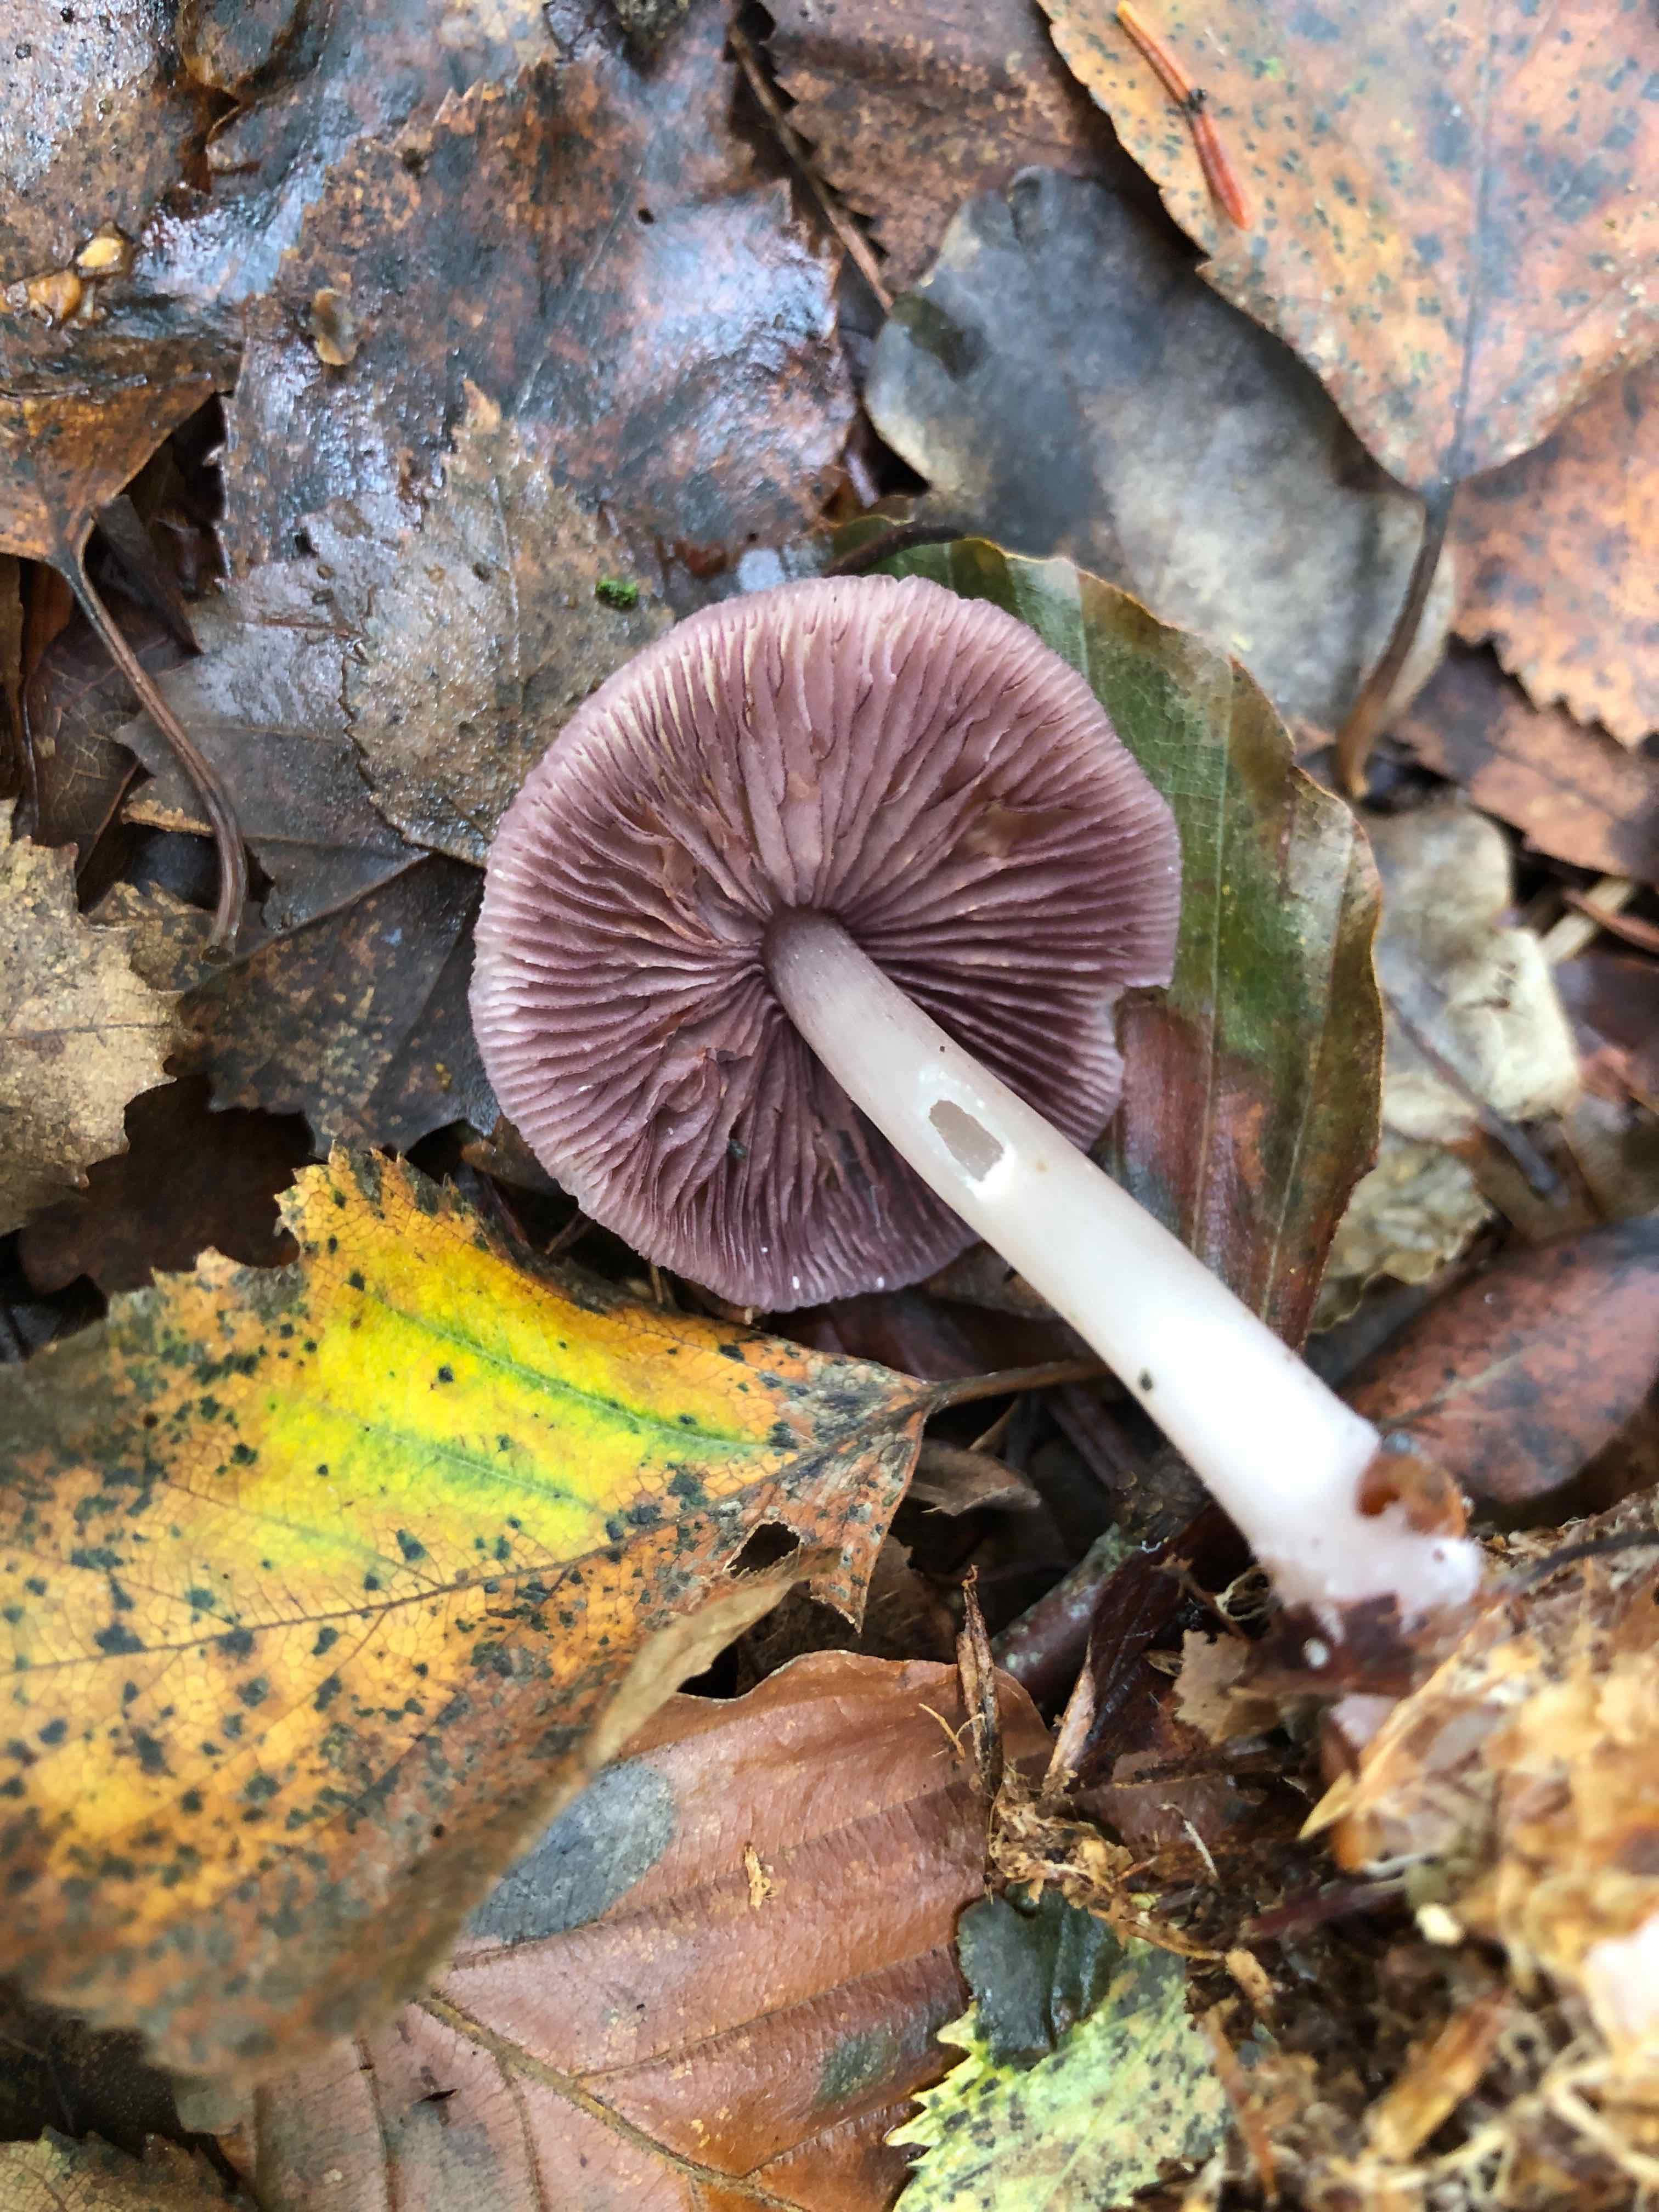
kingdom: Fungi
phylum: Basidiomycota
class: Agaricomycetes
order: Agaricales
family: Mycenaceae
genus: Mycena
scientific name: Mycena pelianthina
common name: mørkbladet huesvamp
